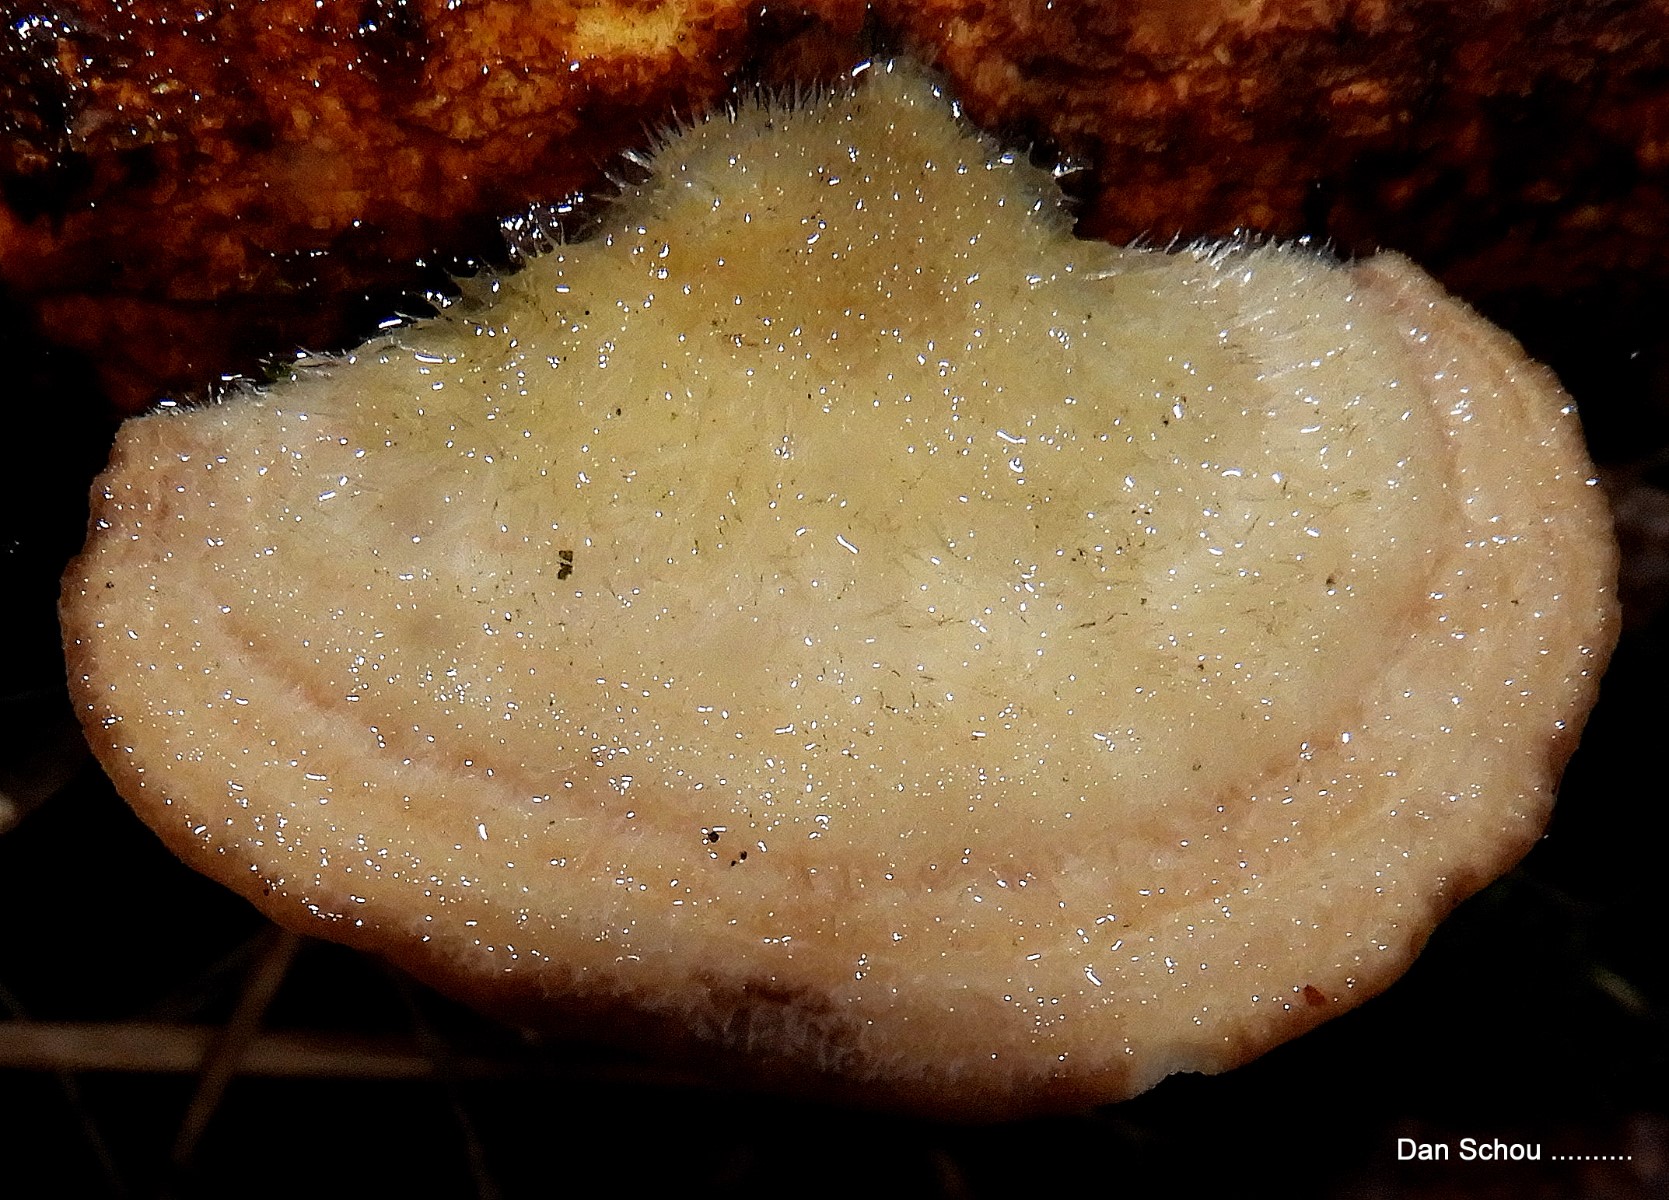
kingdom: Fungi
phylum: Basidiomycota
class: Agaricomycetes
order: Polyporales
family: Polyporaceae
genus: Trametes
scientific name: Trametes hirsuta
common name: håret læderporesvamp
